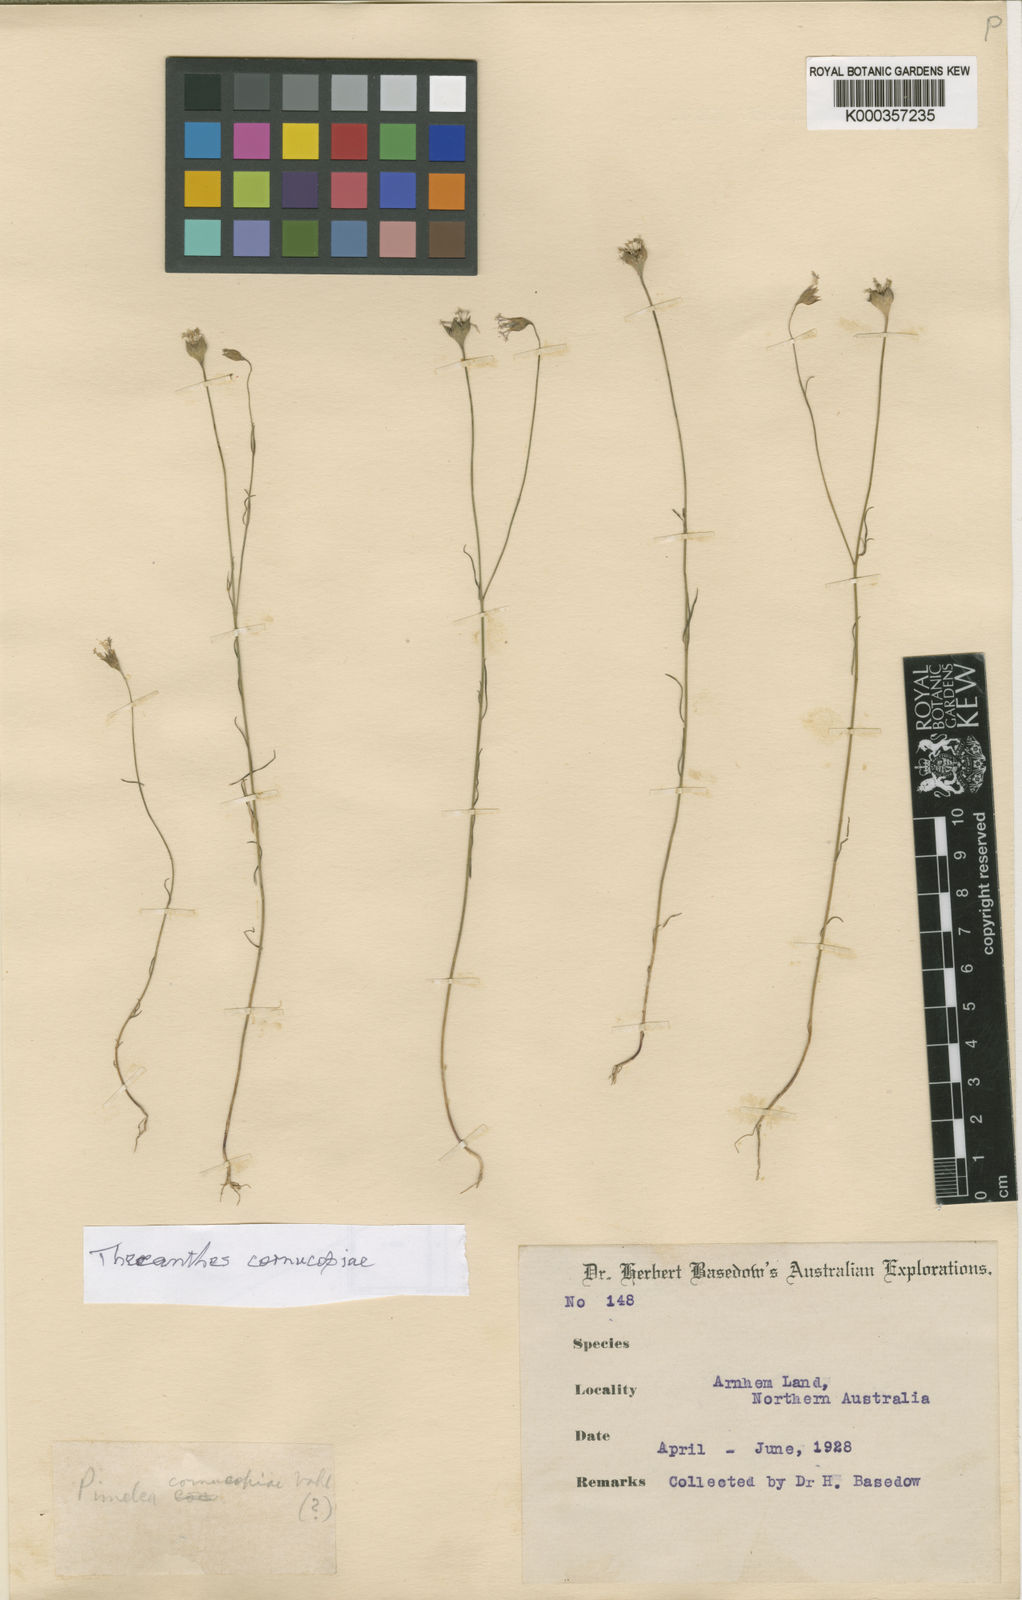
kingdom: Plantae
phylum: Tracheophyta
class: Magnoliopsida
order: Malvales
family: Thymelaeaceae
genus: Pimelea
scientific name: Pimelea cornucopiae
